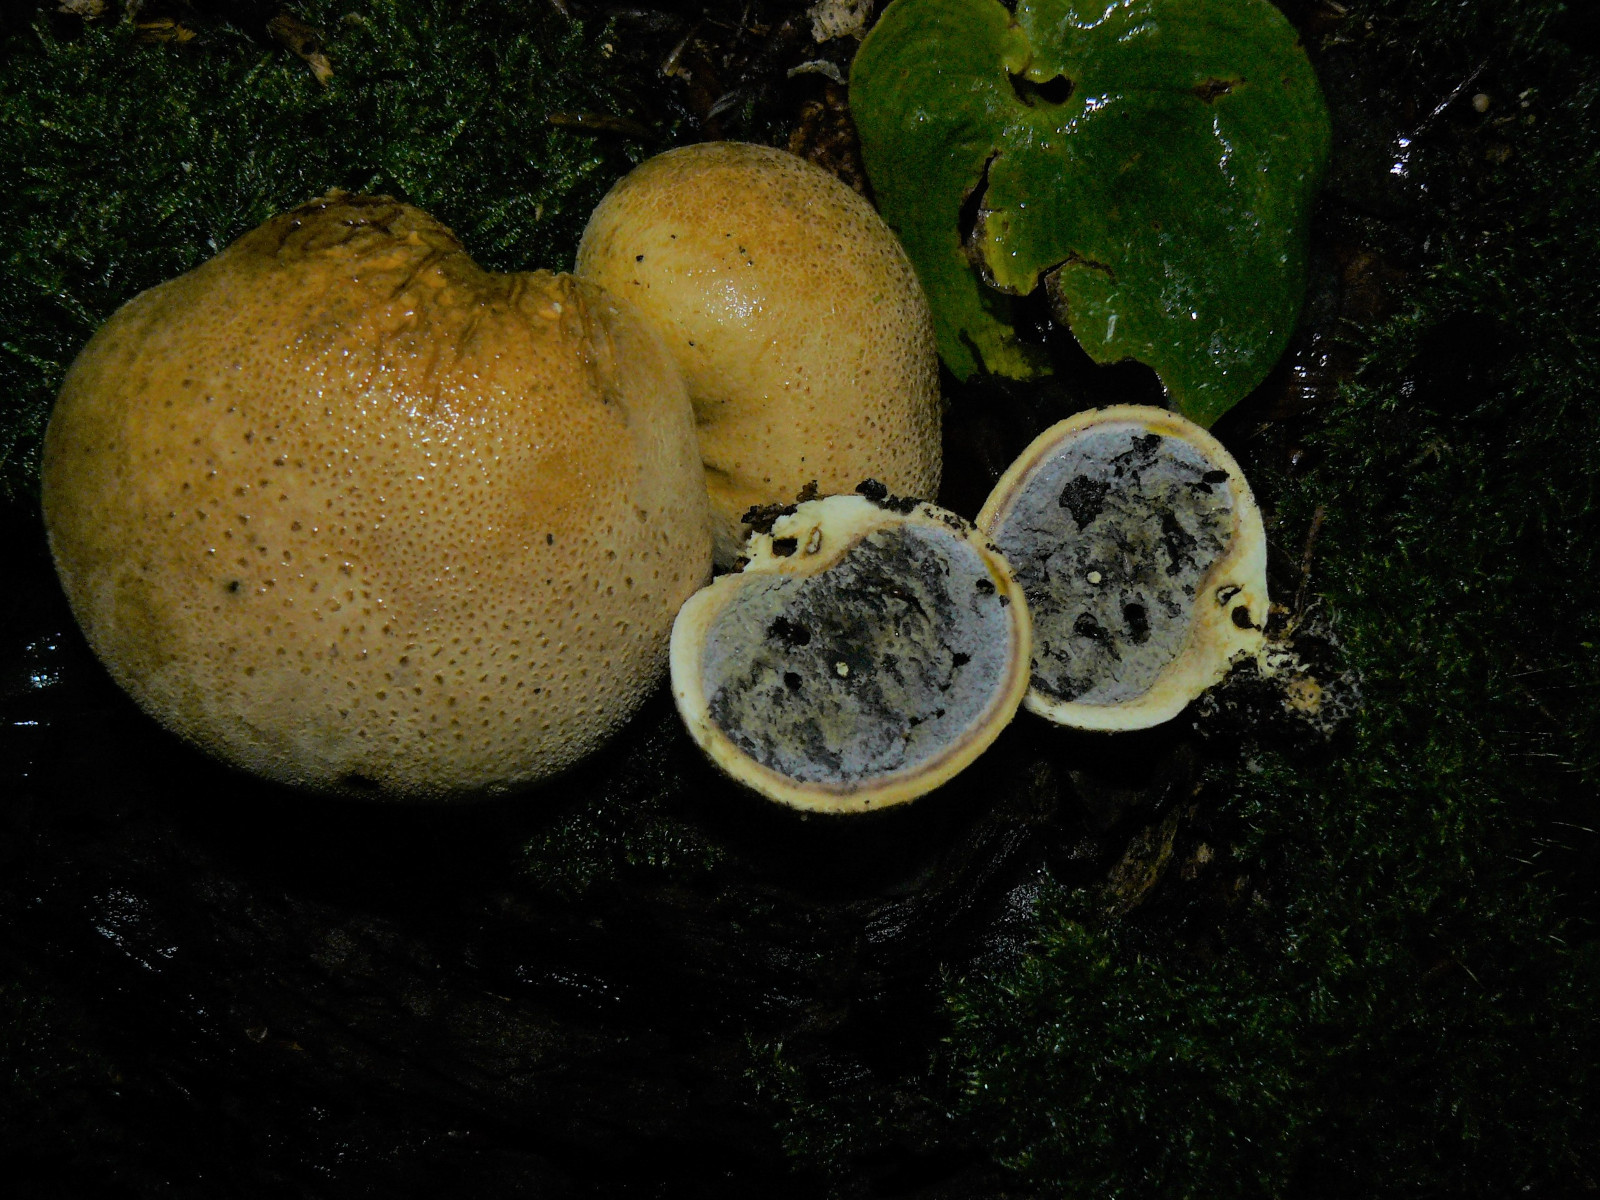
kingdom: Fungi
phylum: Basidiomycota
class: Agaricomycetes
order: Boletales
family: Sclerodermataceae
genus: Scleroderma
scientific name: Scleroderma citrinum
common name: almindelig bruskbold
